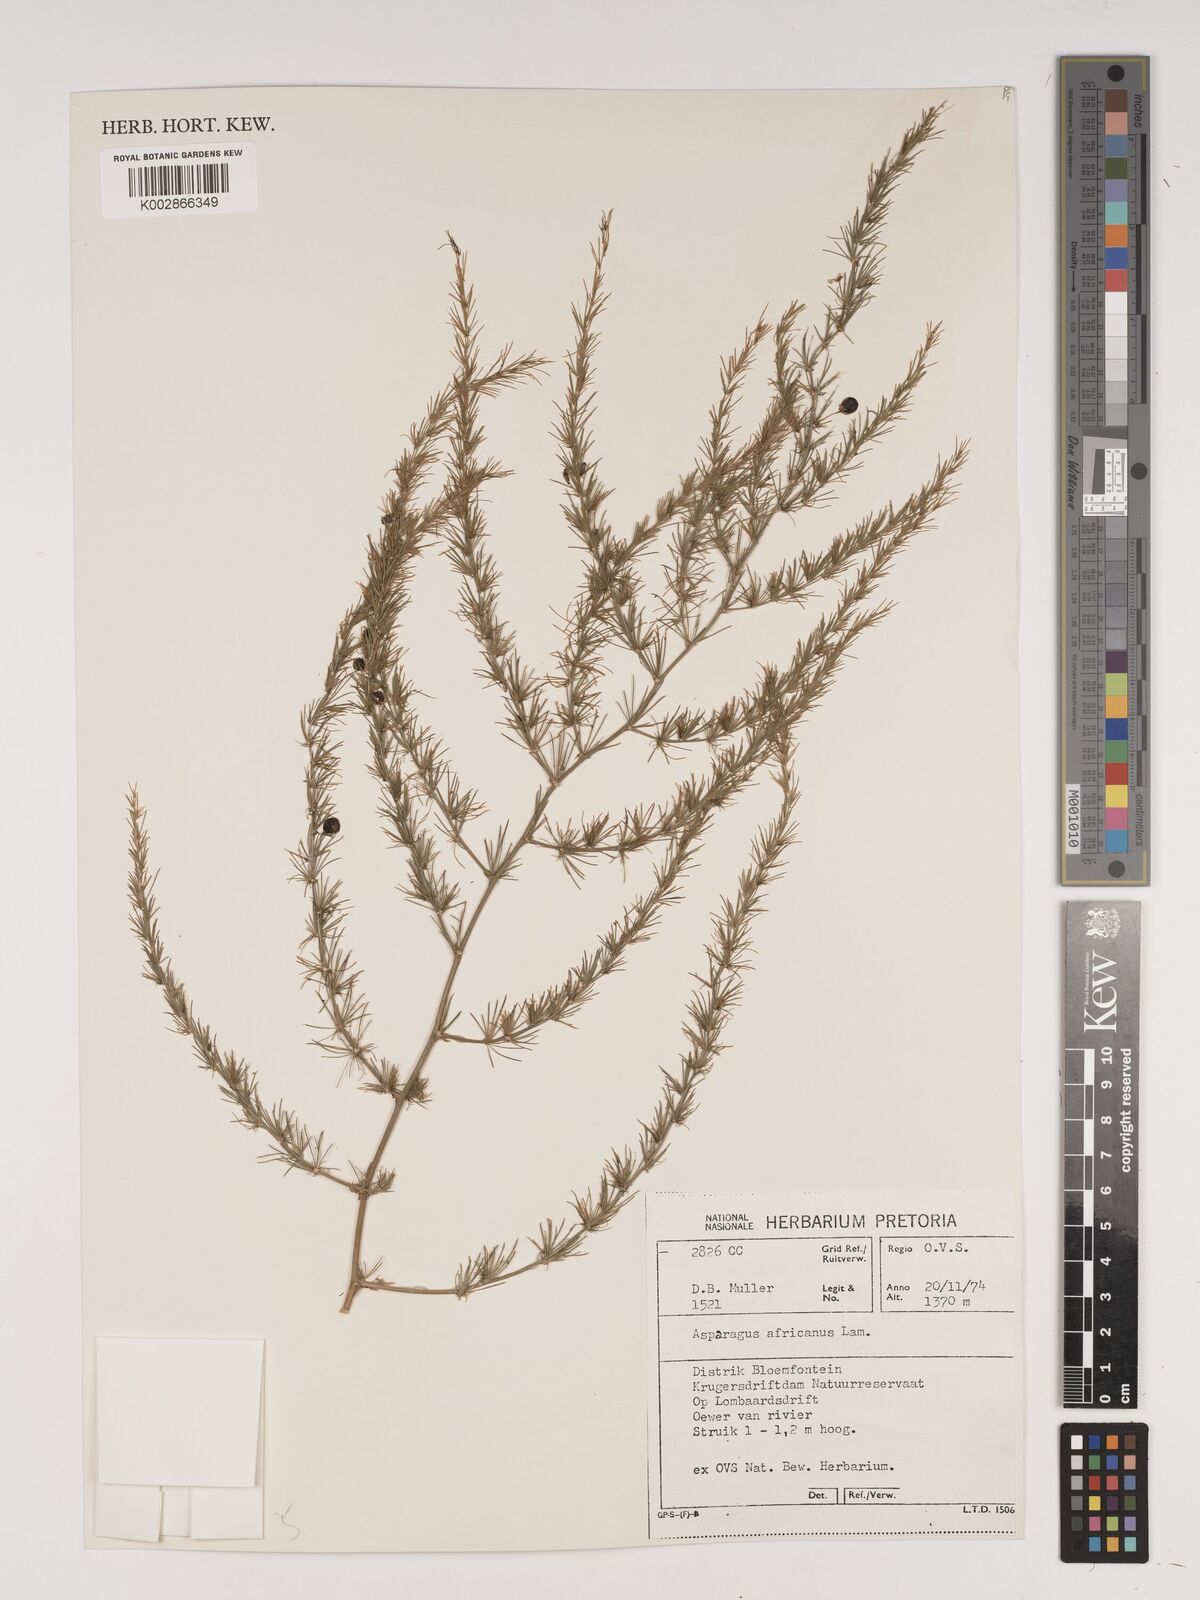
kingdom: Plantae
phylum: Tracheophyta
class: Liliopsida
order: Asparagales
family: Asparagaceae
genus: Asparagus
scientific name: Asparagus africanus
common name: Asparagus-fern
